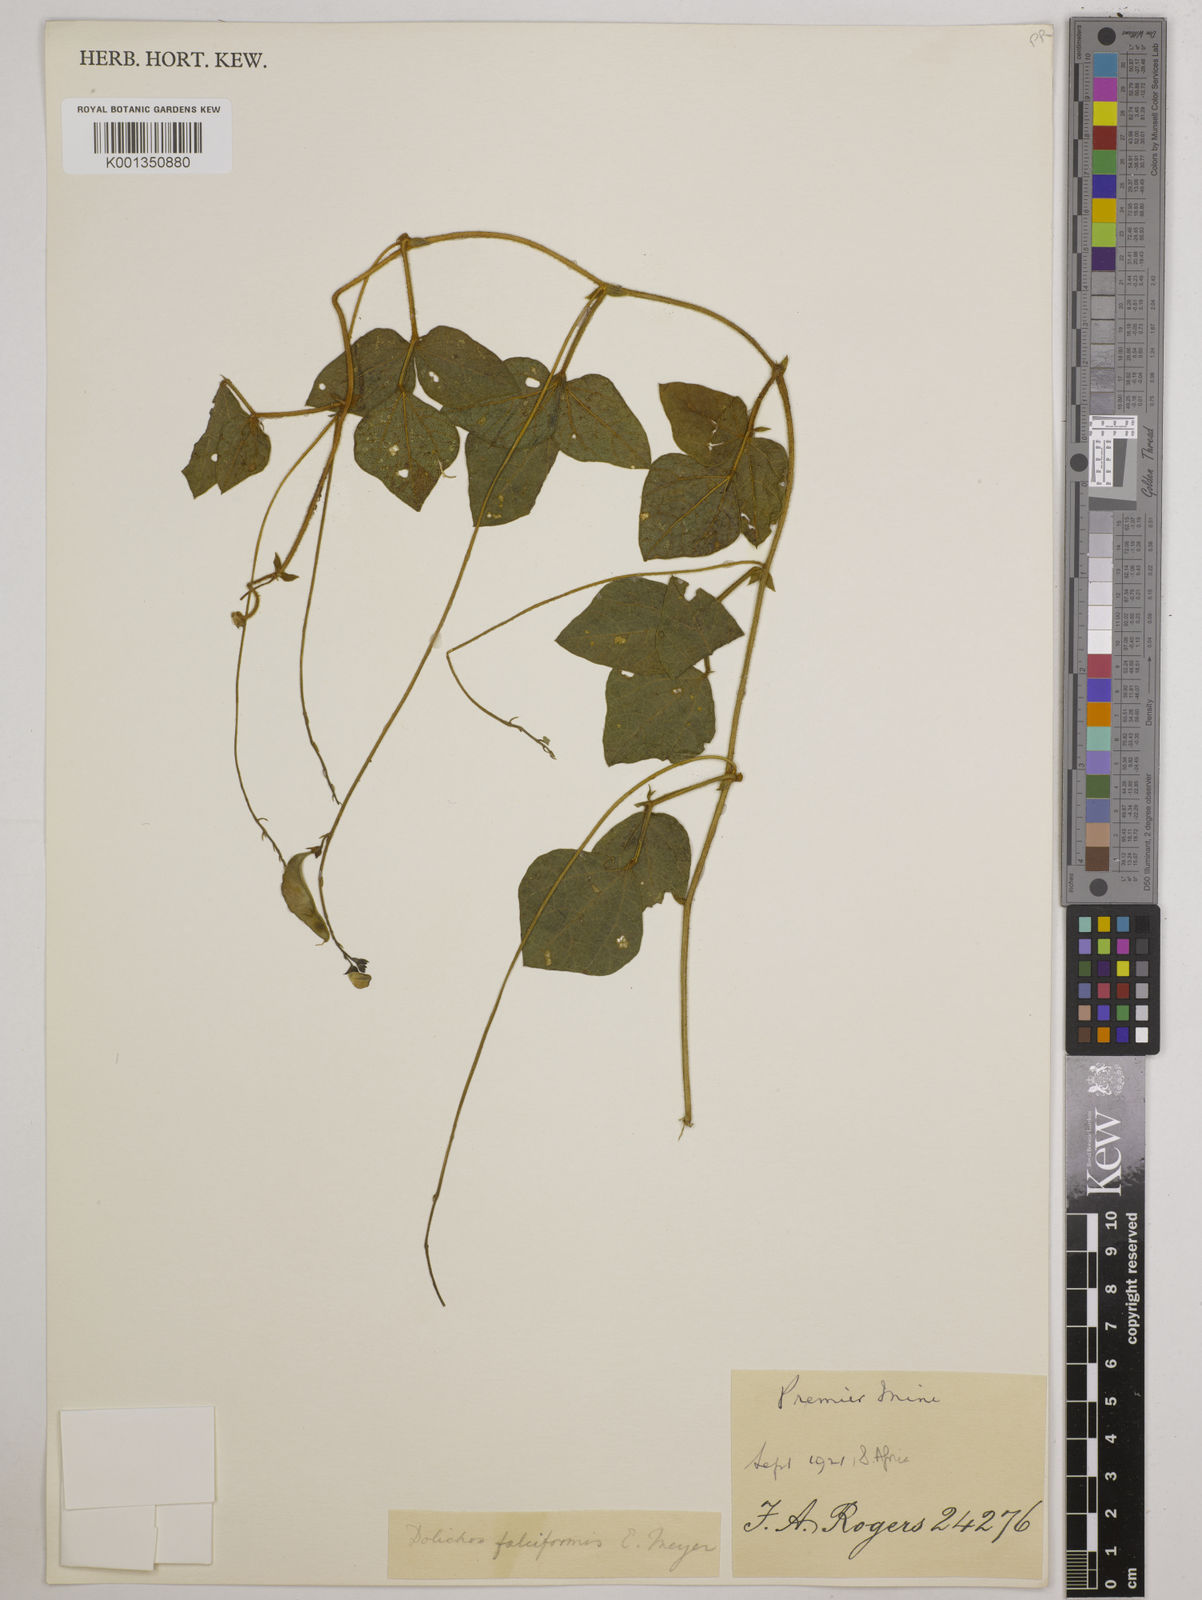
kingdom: Plantae
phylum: Tracheophyta
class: Magnoliopsida
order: Fabales
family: Fabaceae
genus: Dolichos
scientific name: Dolichos falciformis
